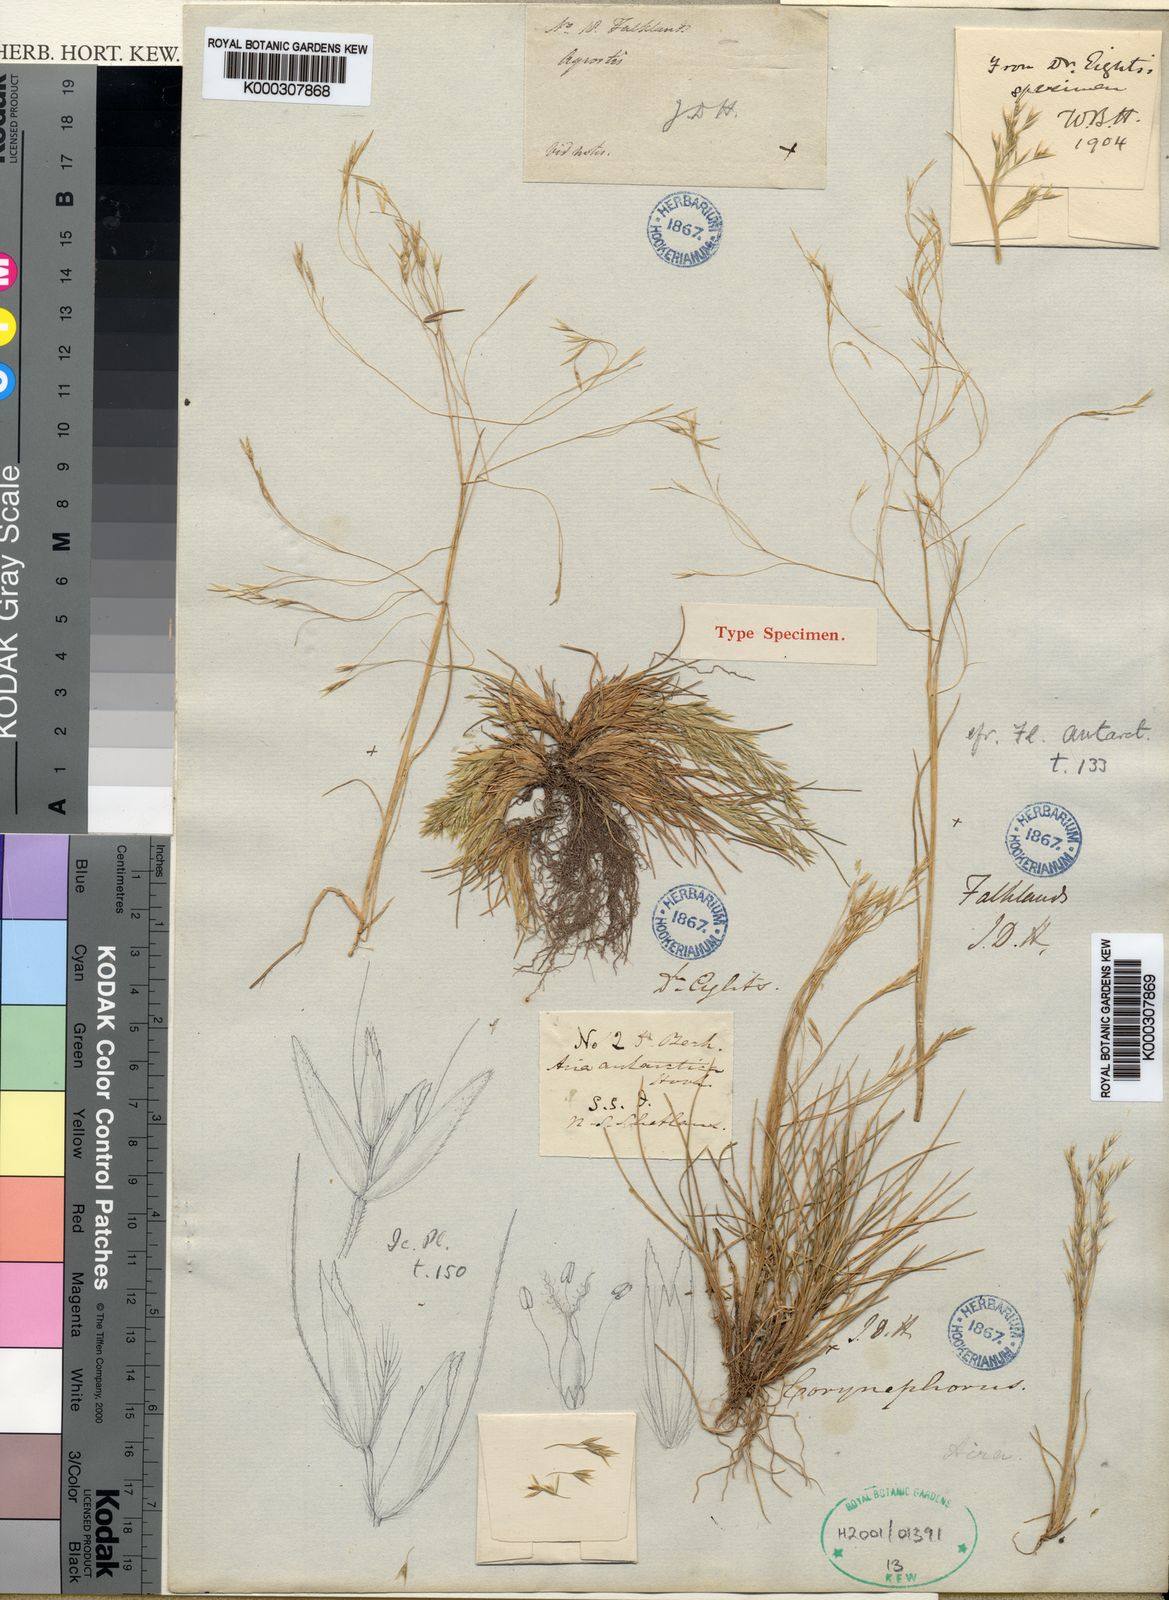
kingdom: Plantae
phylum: Tracheophyta
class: Liliopsida
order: Poales
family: Poaceae
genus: Deschampsia
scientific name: Deschampsia
